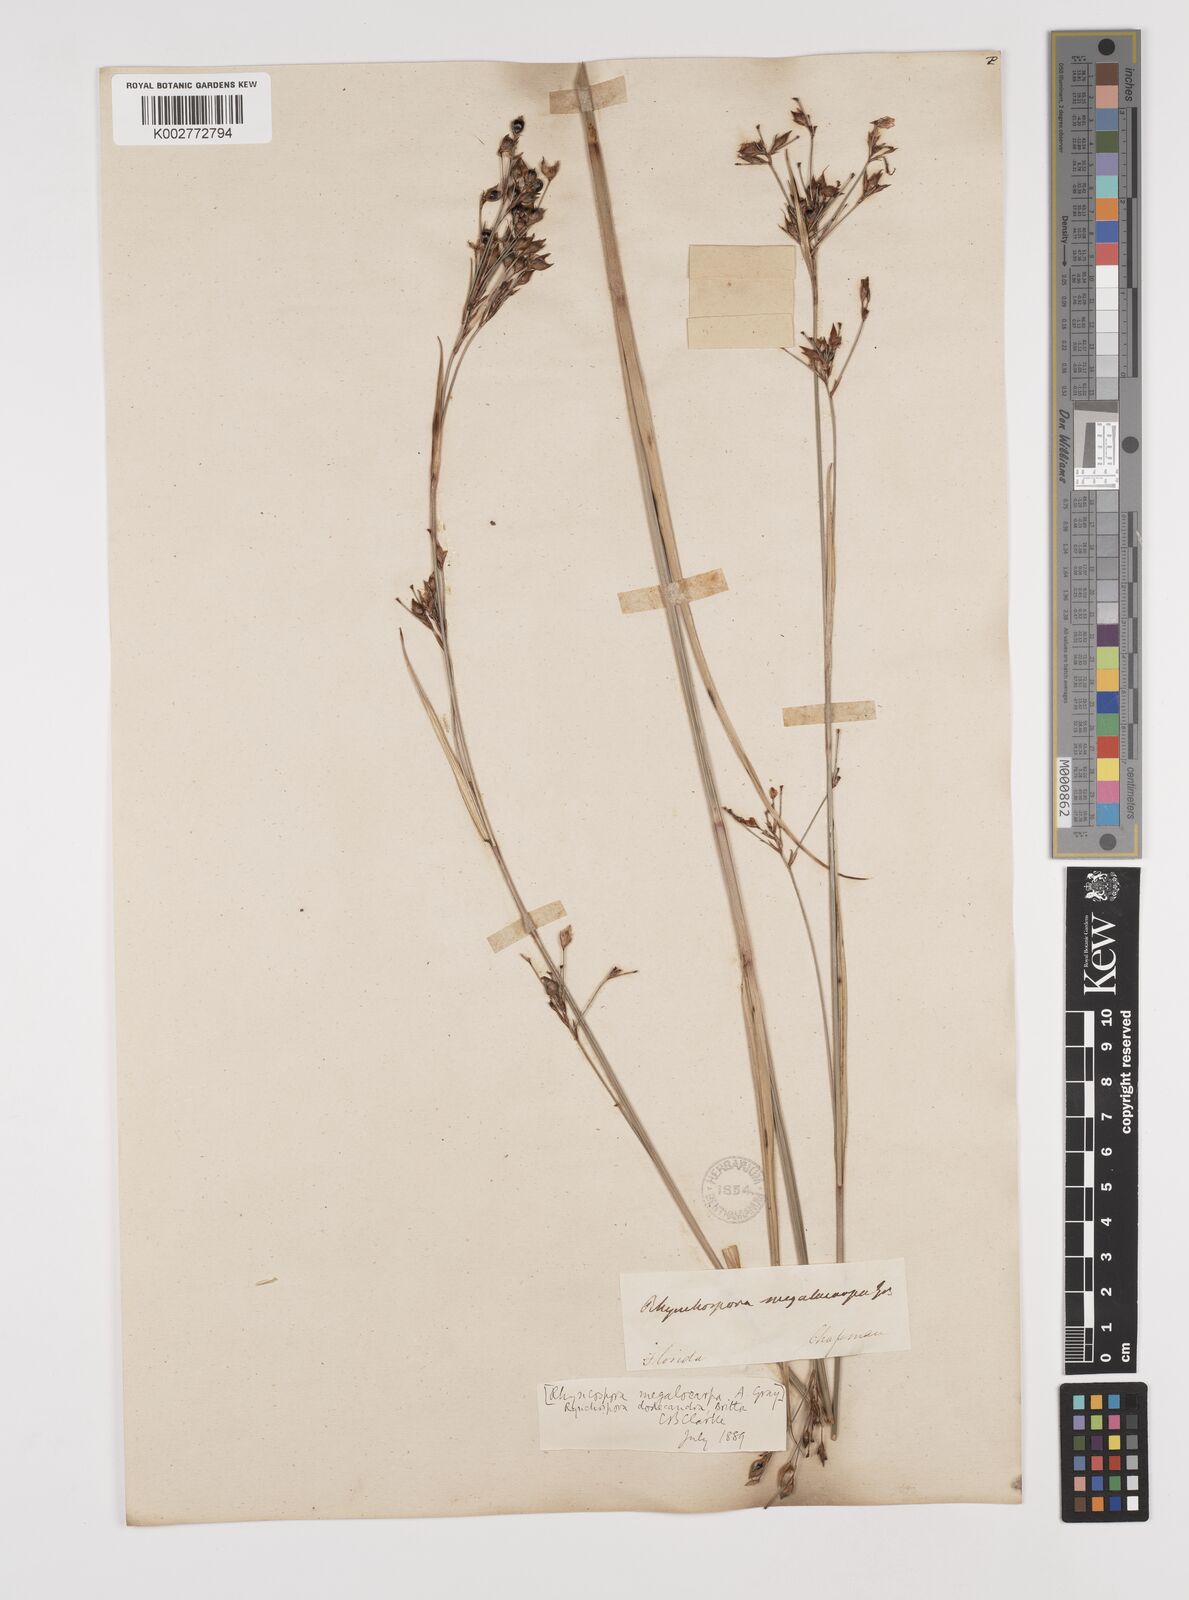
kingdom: Plantae
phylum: Tracheophyta
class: Liliopsida
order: Poales
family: Cyperaceae
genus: Rhynchospora
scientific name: Rhynchospora megalocarpa
